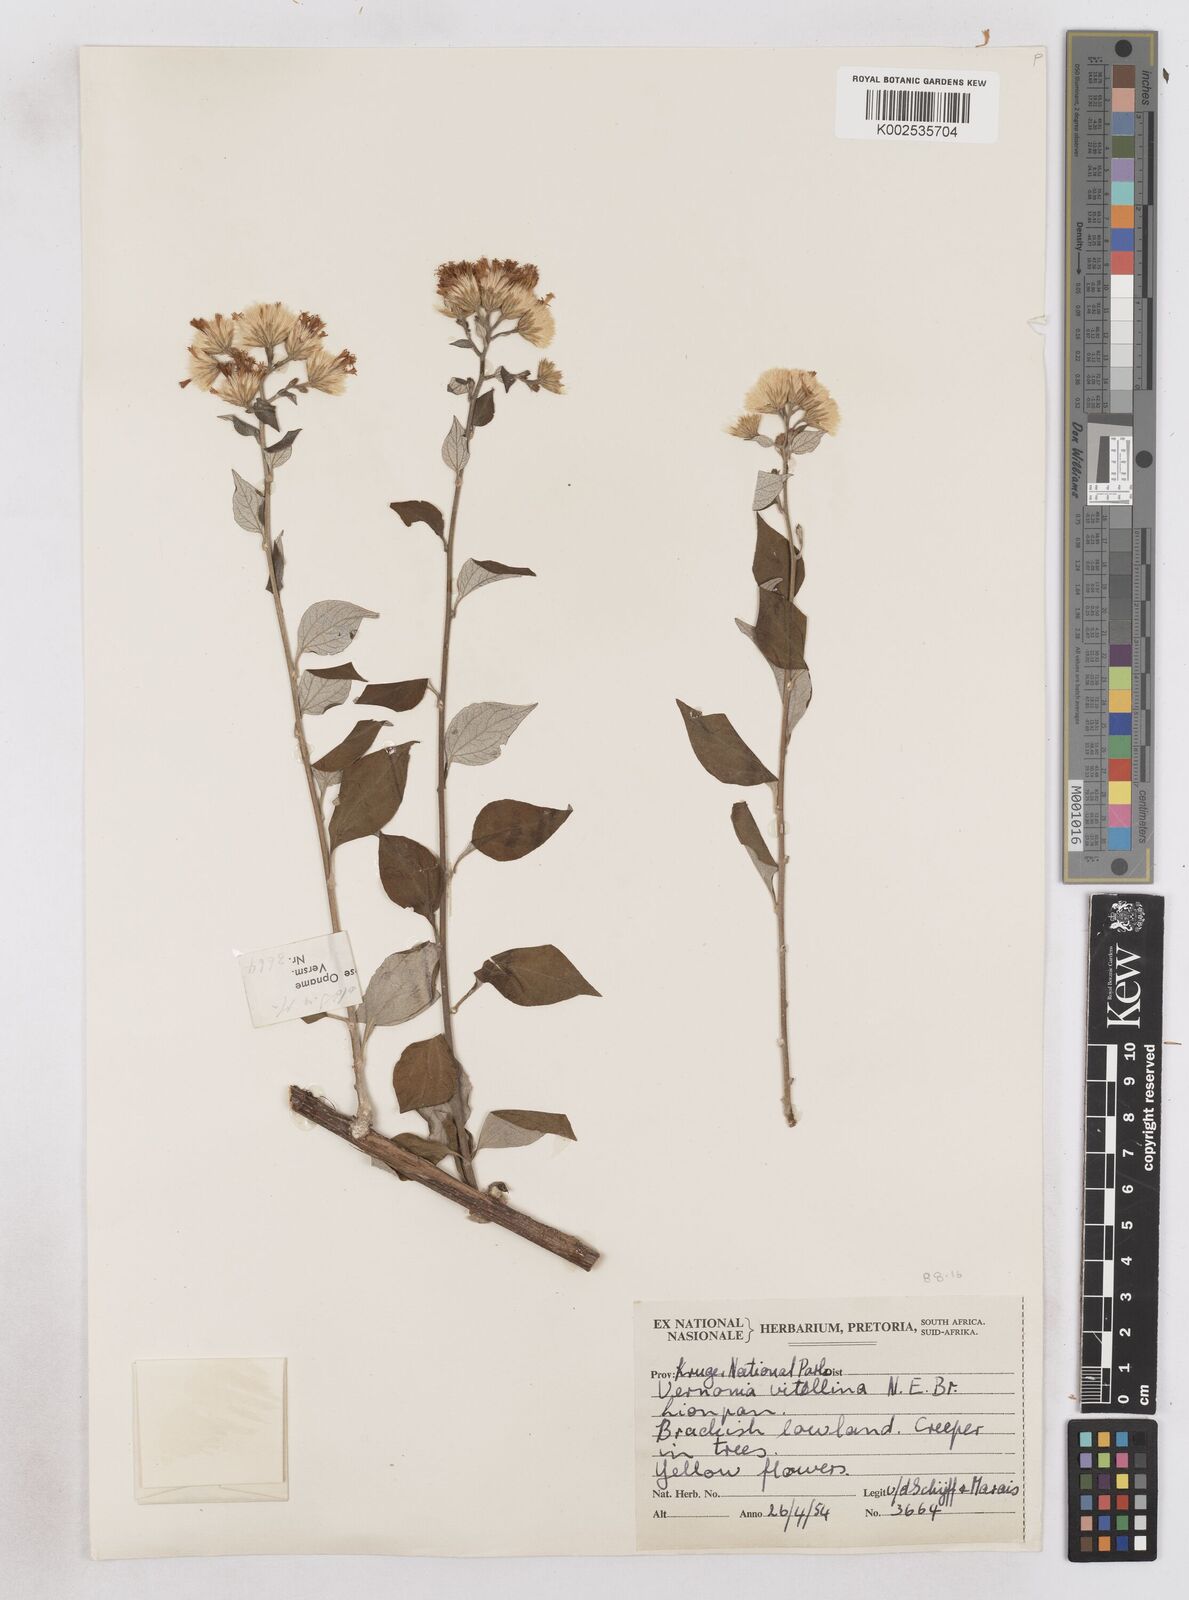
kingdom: Plantae
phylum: Tracheophyta
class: Magnoliopsida
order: Asterales
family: Asteraceae
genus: Distephanus
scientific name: Distephanus
